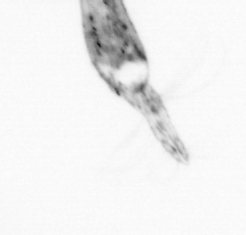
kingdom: Animalia
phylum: Arthropoda
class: Copepoda
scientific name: Copepoda
